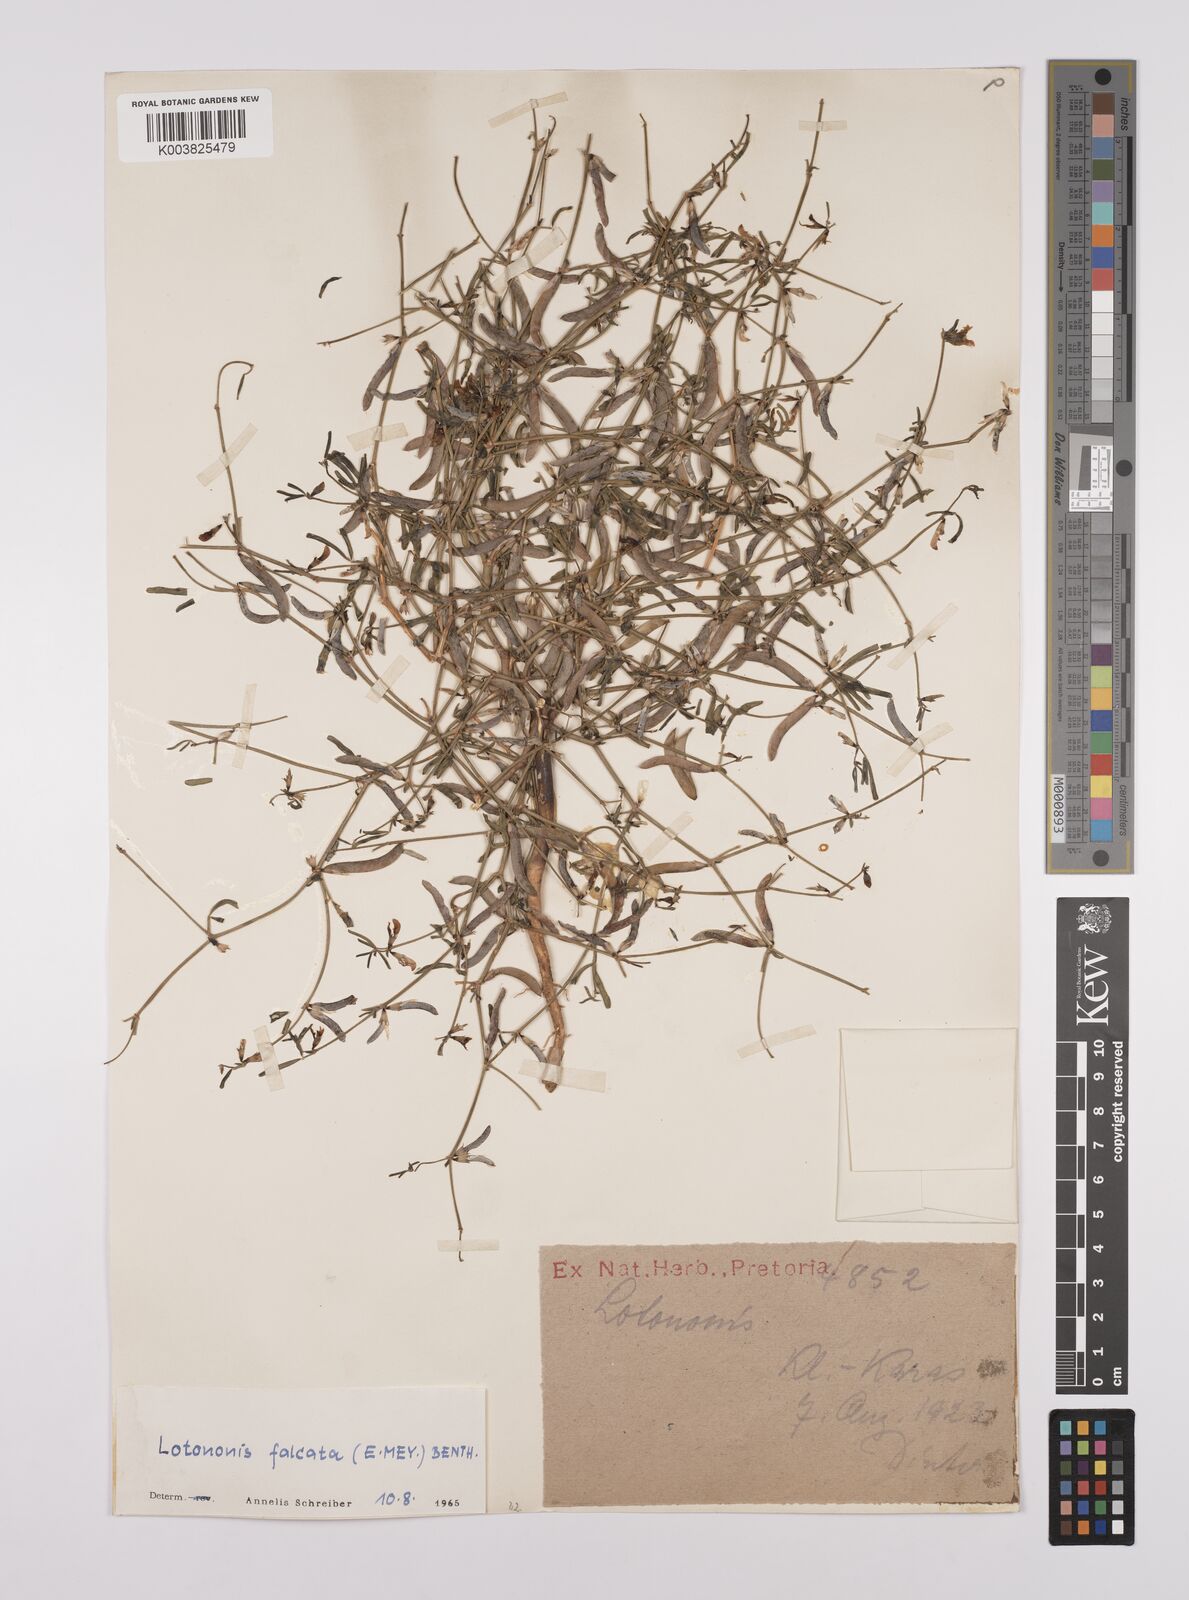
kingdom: Plantae
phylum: Tracheophyta
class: Magnoliopsida
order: Fabales
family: Fabaceae
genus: Lotononis
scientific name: Lotononis falcata
